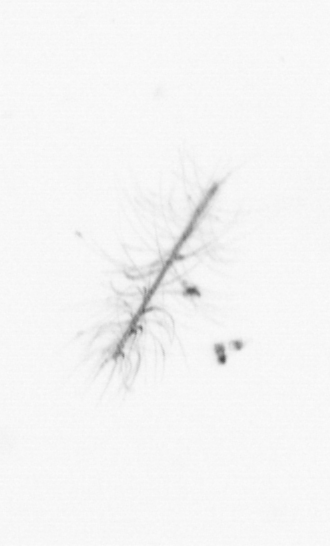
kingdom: Chromista
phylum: Ochrophyta
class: Bacillariophyceae
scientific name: Bacillariophyceae
